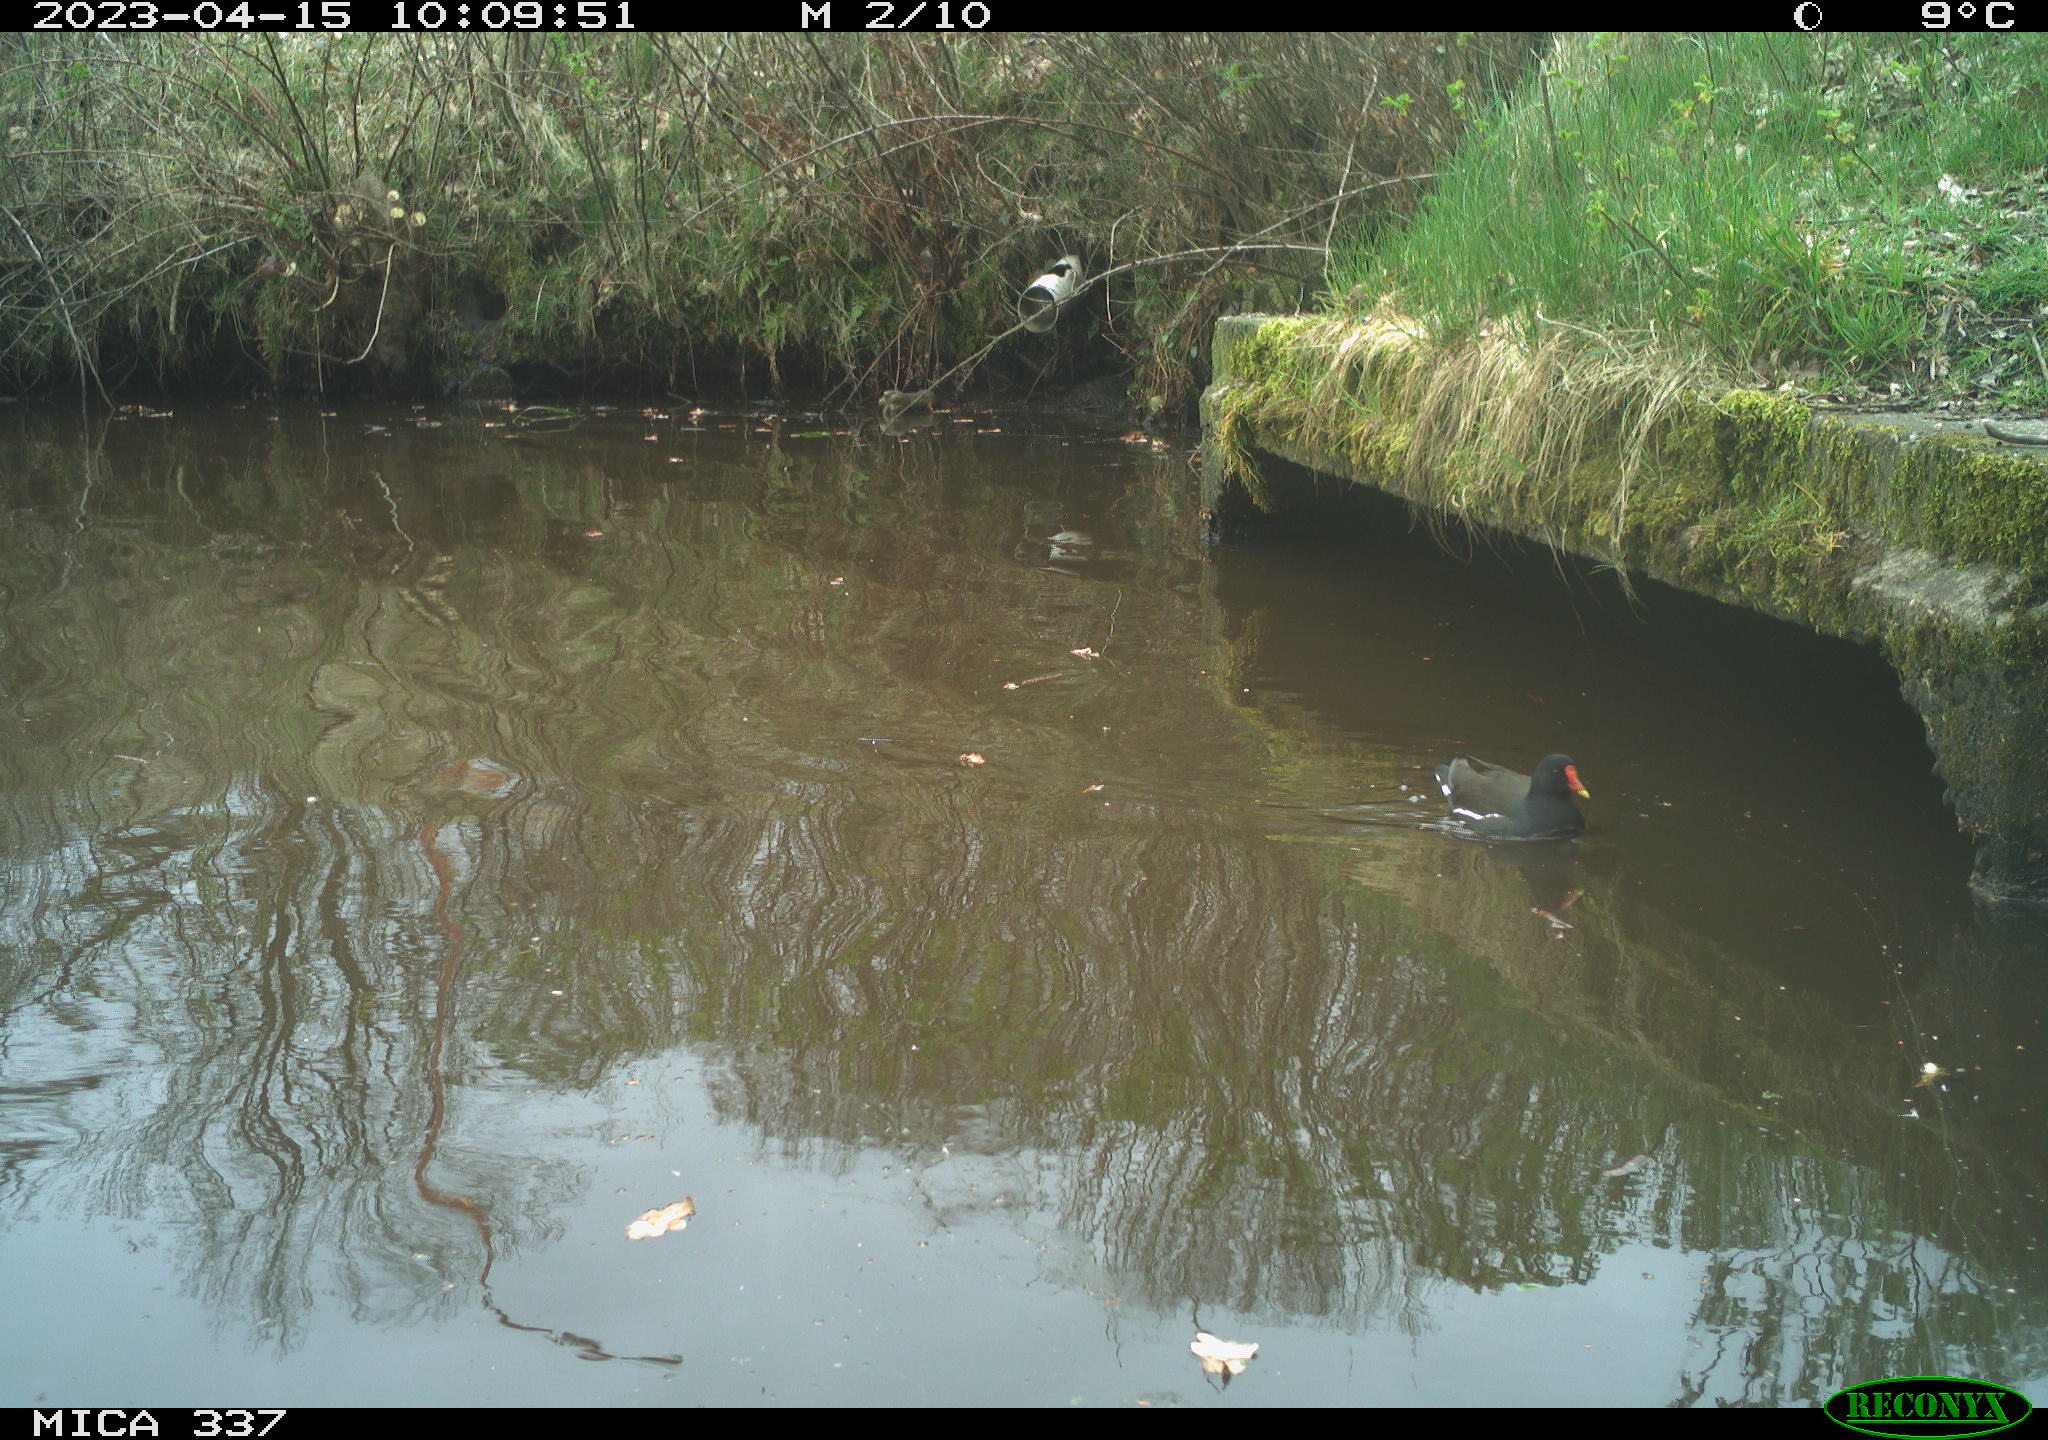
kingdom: Animalia
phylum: Chordata
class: Aves
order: Gruiformes
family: Rallidae
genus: Gallinula
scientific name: Gallinula chloropus
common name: Common moorhen
